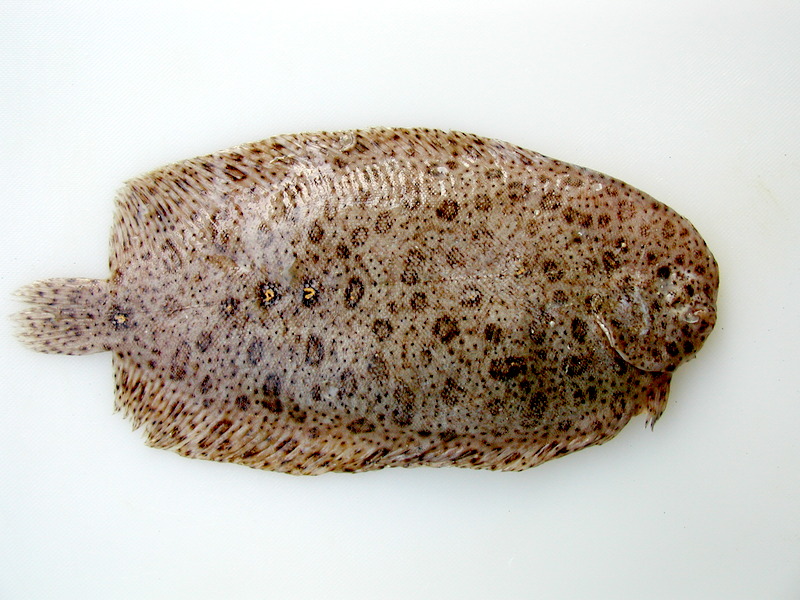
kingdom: Animalia
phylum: Chordata
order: Pleuronectiformes
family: Soleidae
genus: Pardachirus
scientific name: Pardachirus marmoratus
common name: Finless sole
